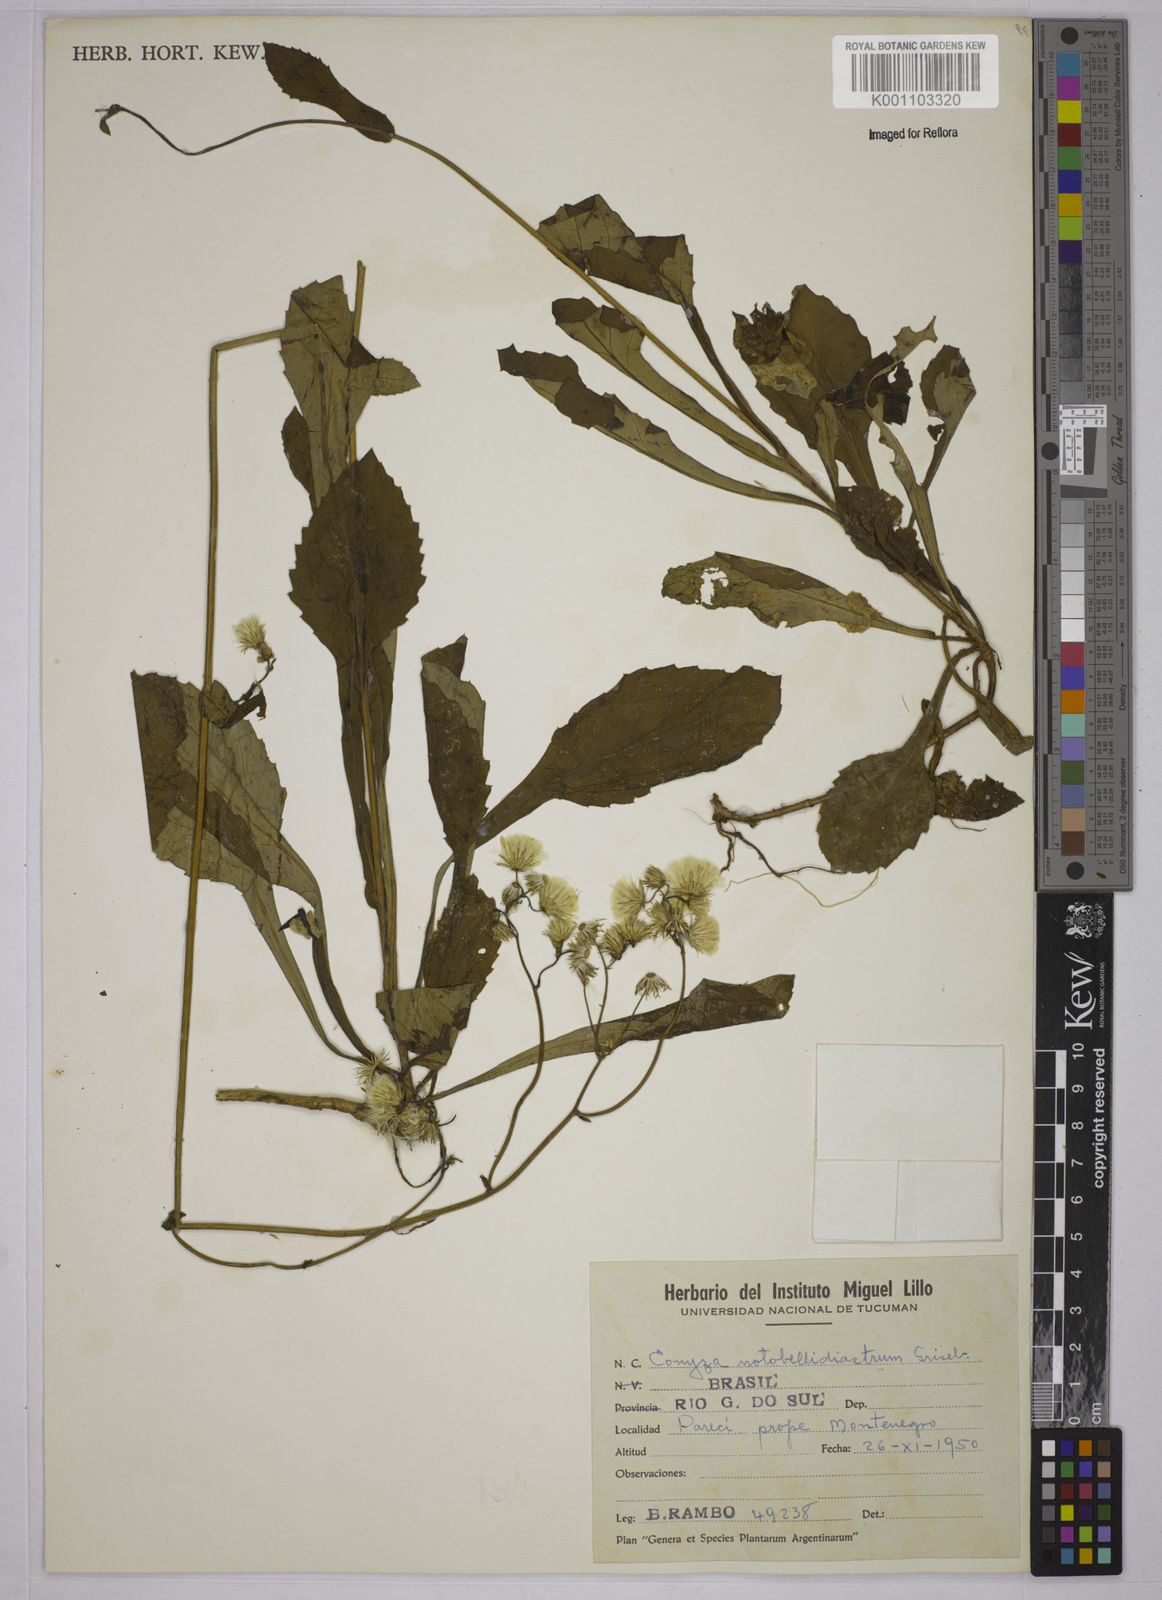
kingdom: Plantae
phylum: Tracheophyta
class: Magnoliopsida
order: Asterales
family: Asteraceae
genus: Exostigma
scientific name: Exostigma notobellidiastrum
